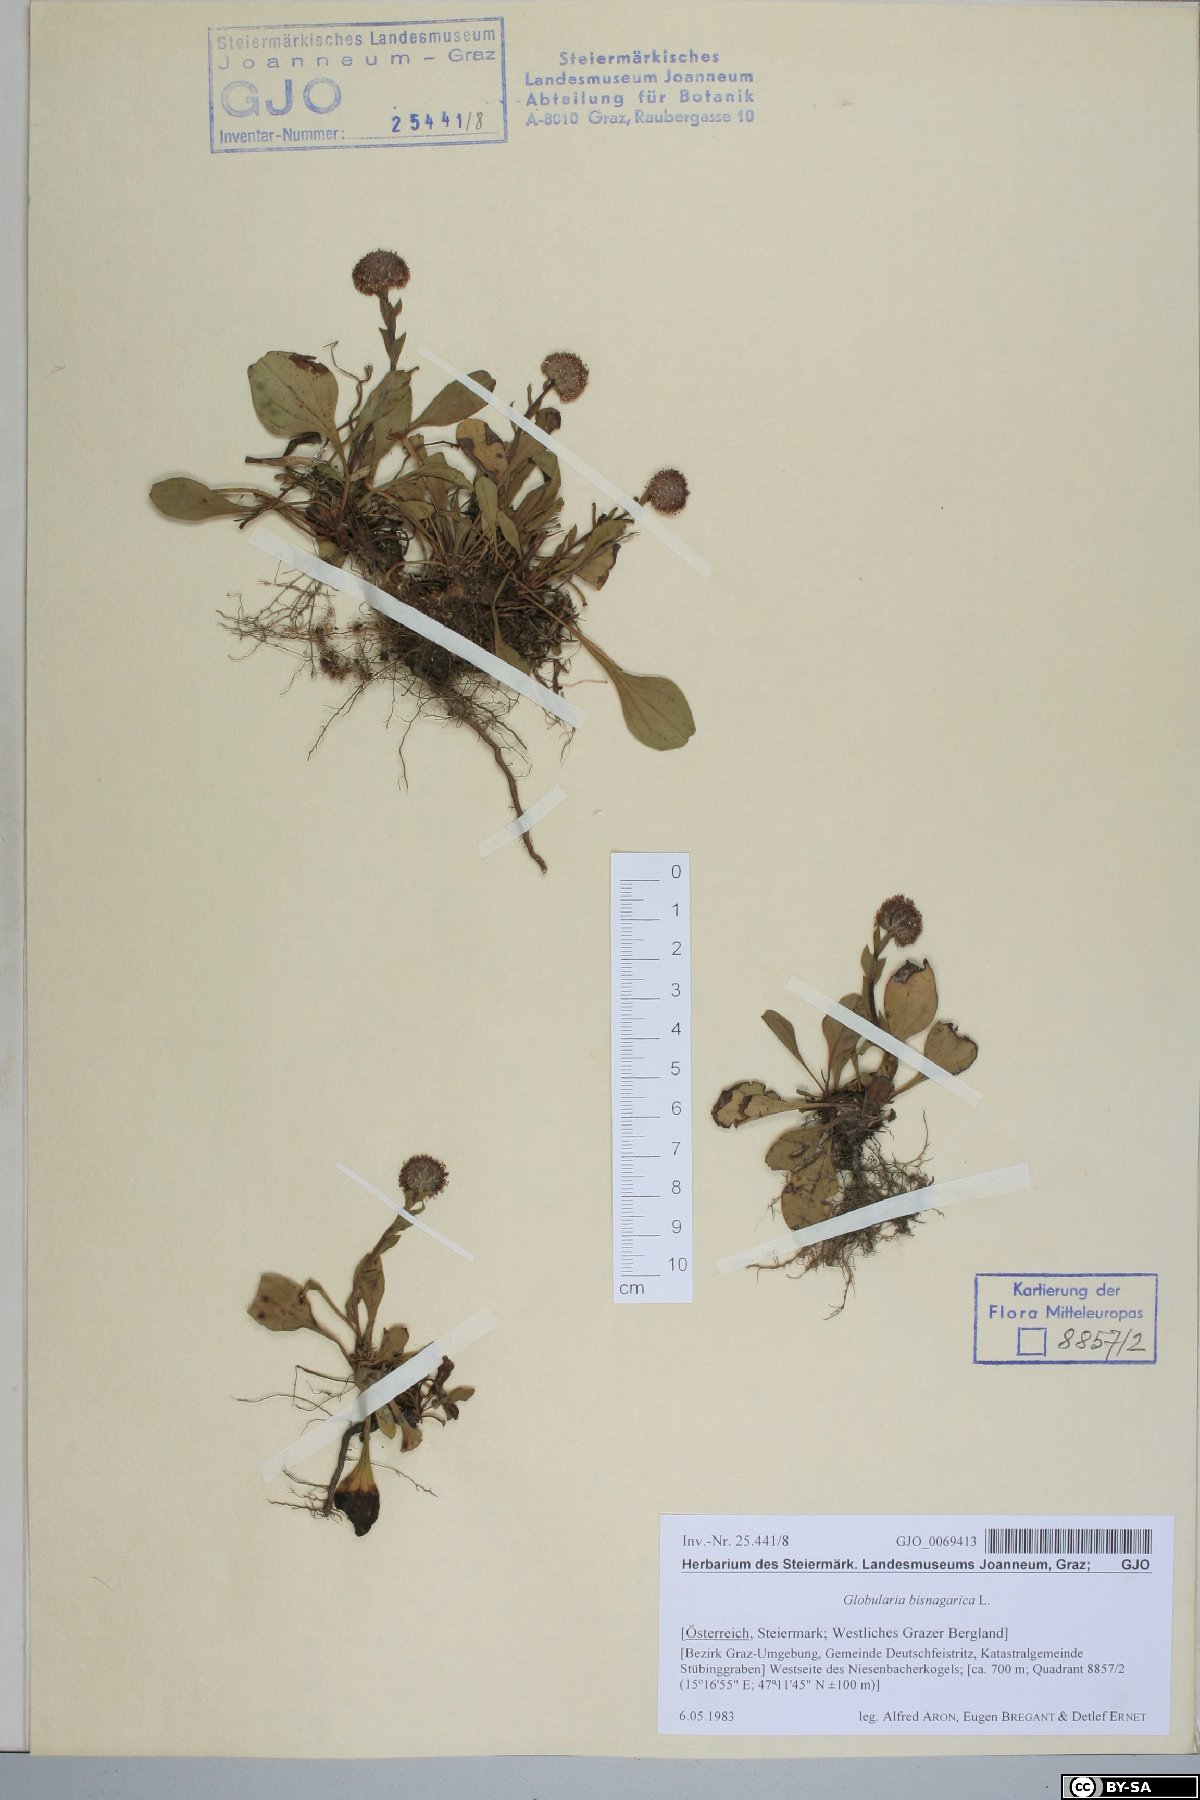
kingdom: Plantae
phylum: Tracheophyta
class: Magnoliopsida
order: Lamiales
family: Plantaginaceae
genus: Globularia
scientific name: Globularia bisnagarica
